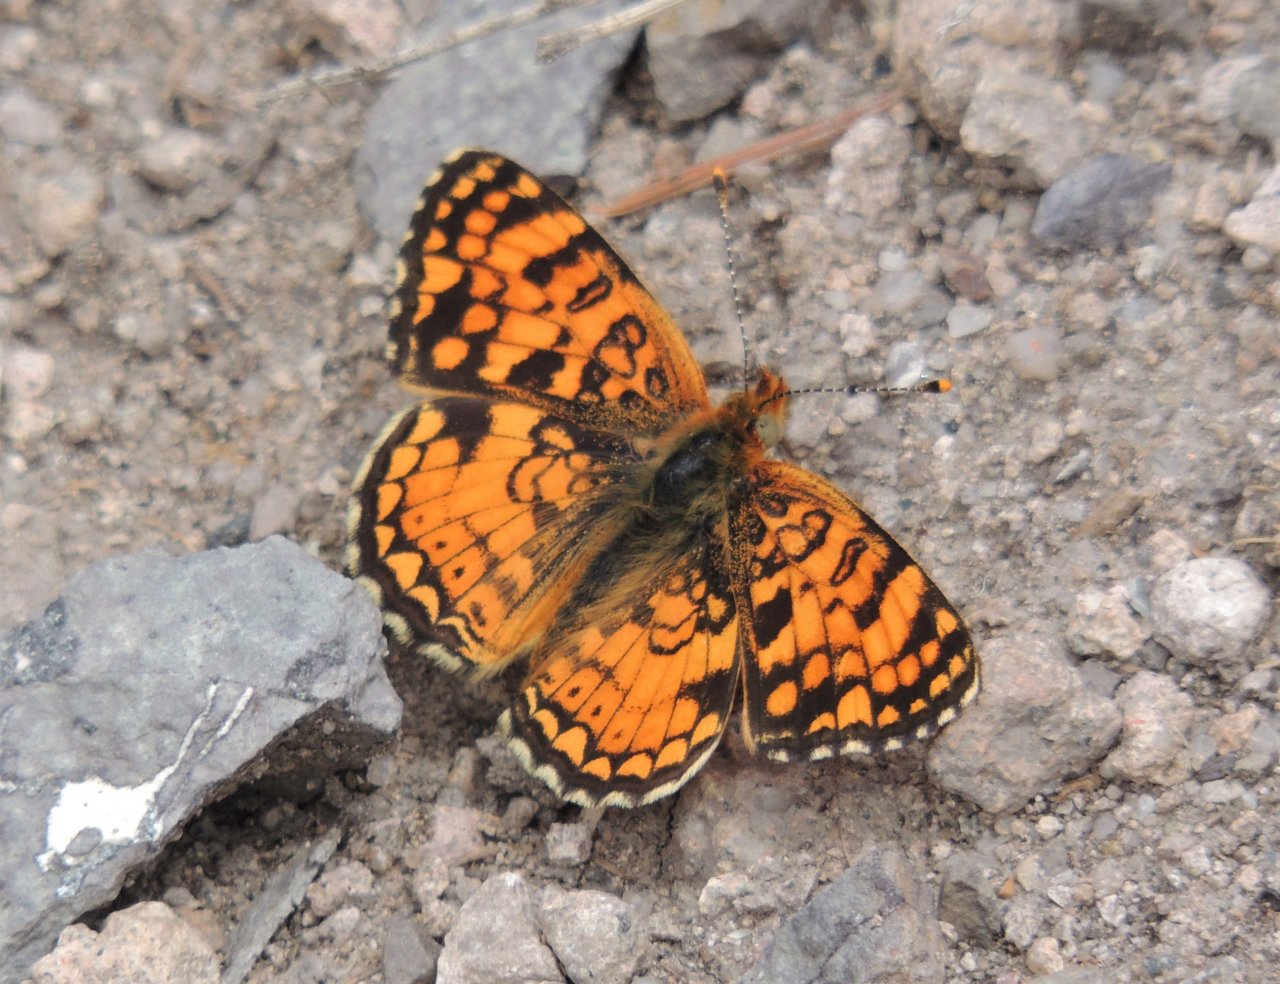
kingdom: Animalia
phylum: Arthropoda
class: Insecta
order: Lepidoptera
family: Nymphalidae
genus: Phyciodes
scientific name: Phyciodes pallida
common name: Pale Crescent
